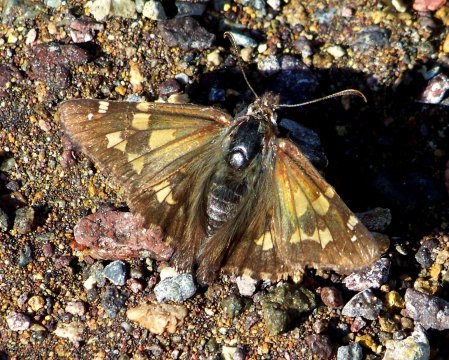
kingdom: Animalia
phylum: Arthropoda
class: Insecta
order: Lepidoptera
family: Hesperiidae
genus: Zestusa
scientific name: Zestusa dorus
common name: Short-tailed Skipper
